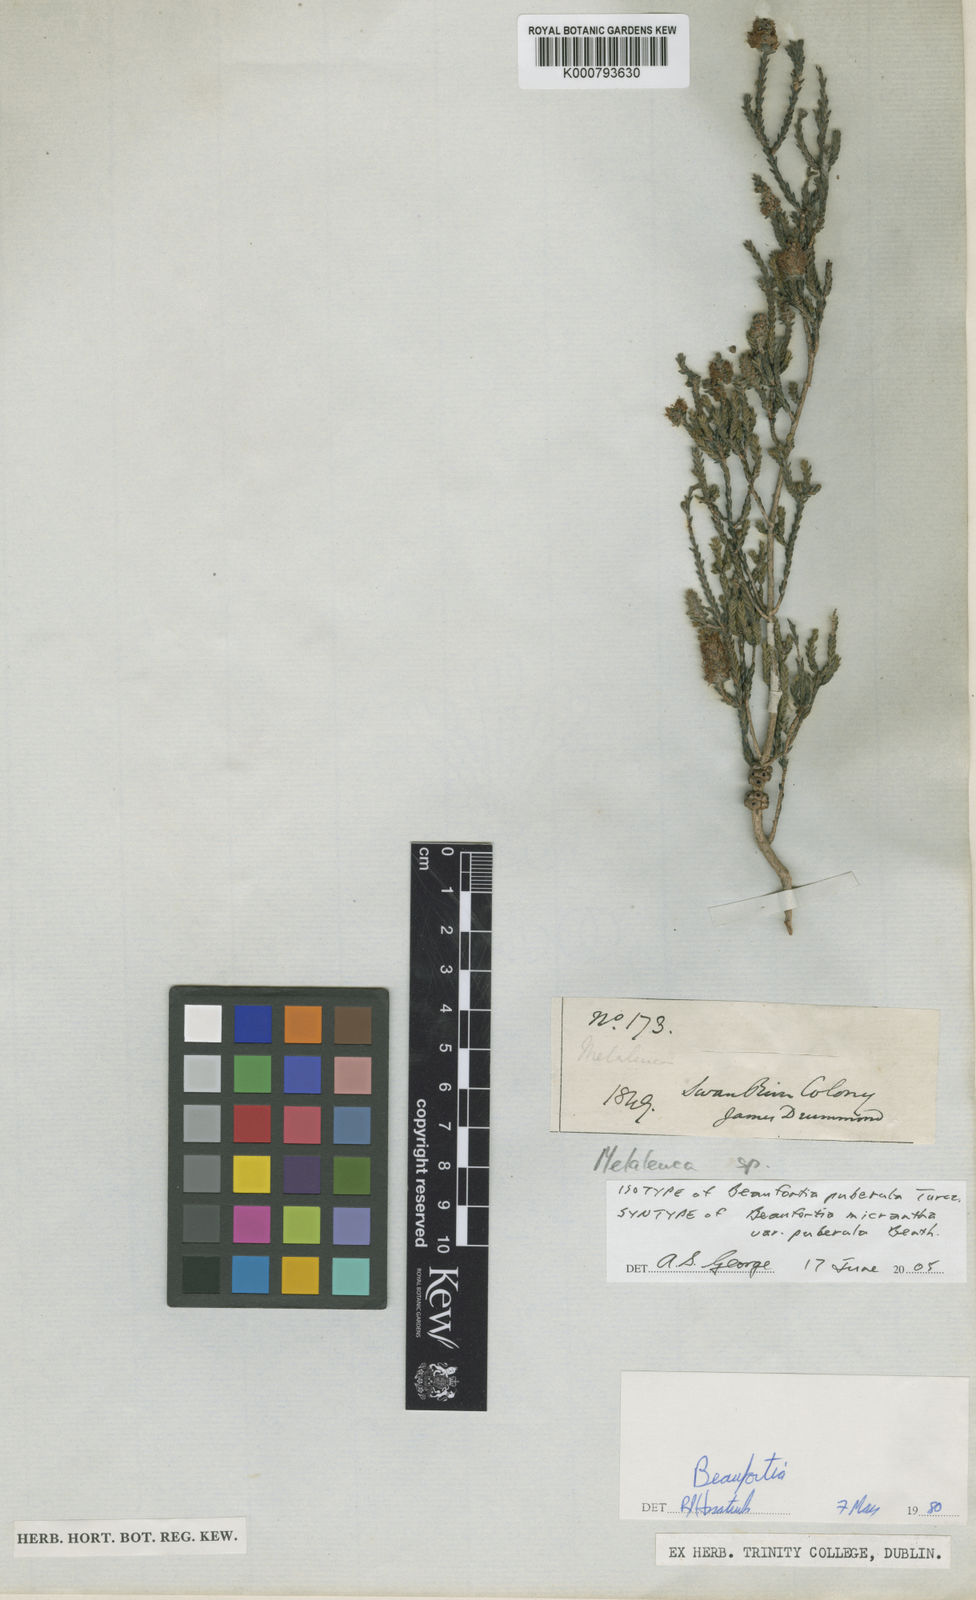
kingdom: Plantae
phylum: Tracheophyta
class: Magnoliopsida
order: Myrtales
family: Myrtaceae
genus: Melaleuca
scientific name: Melaleuca micrantha
